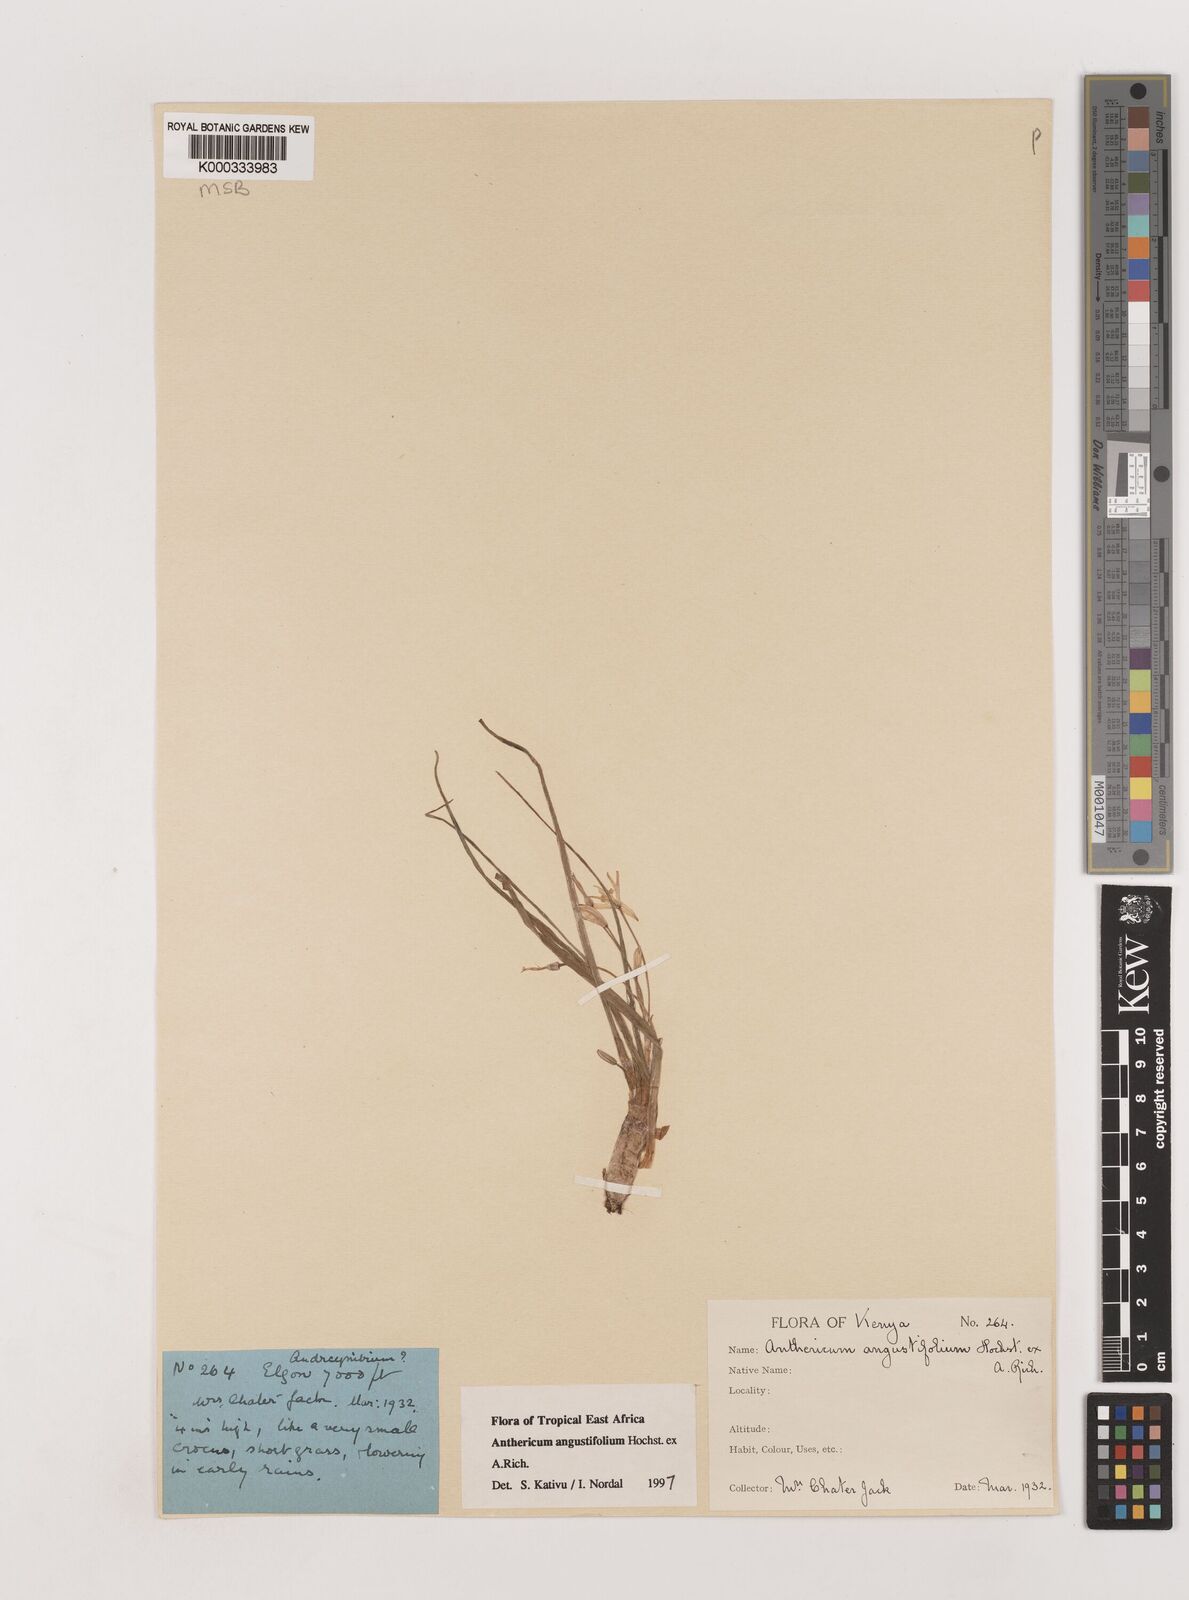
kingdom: Plantae
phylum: Tracheophyta
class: Liliopsida
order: Asparagales
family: Asparagaceae
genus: Anthericum
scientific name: Anthericum angustifolium
